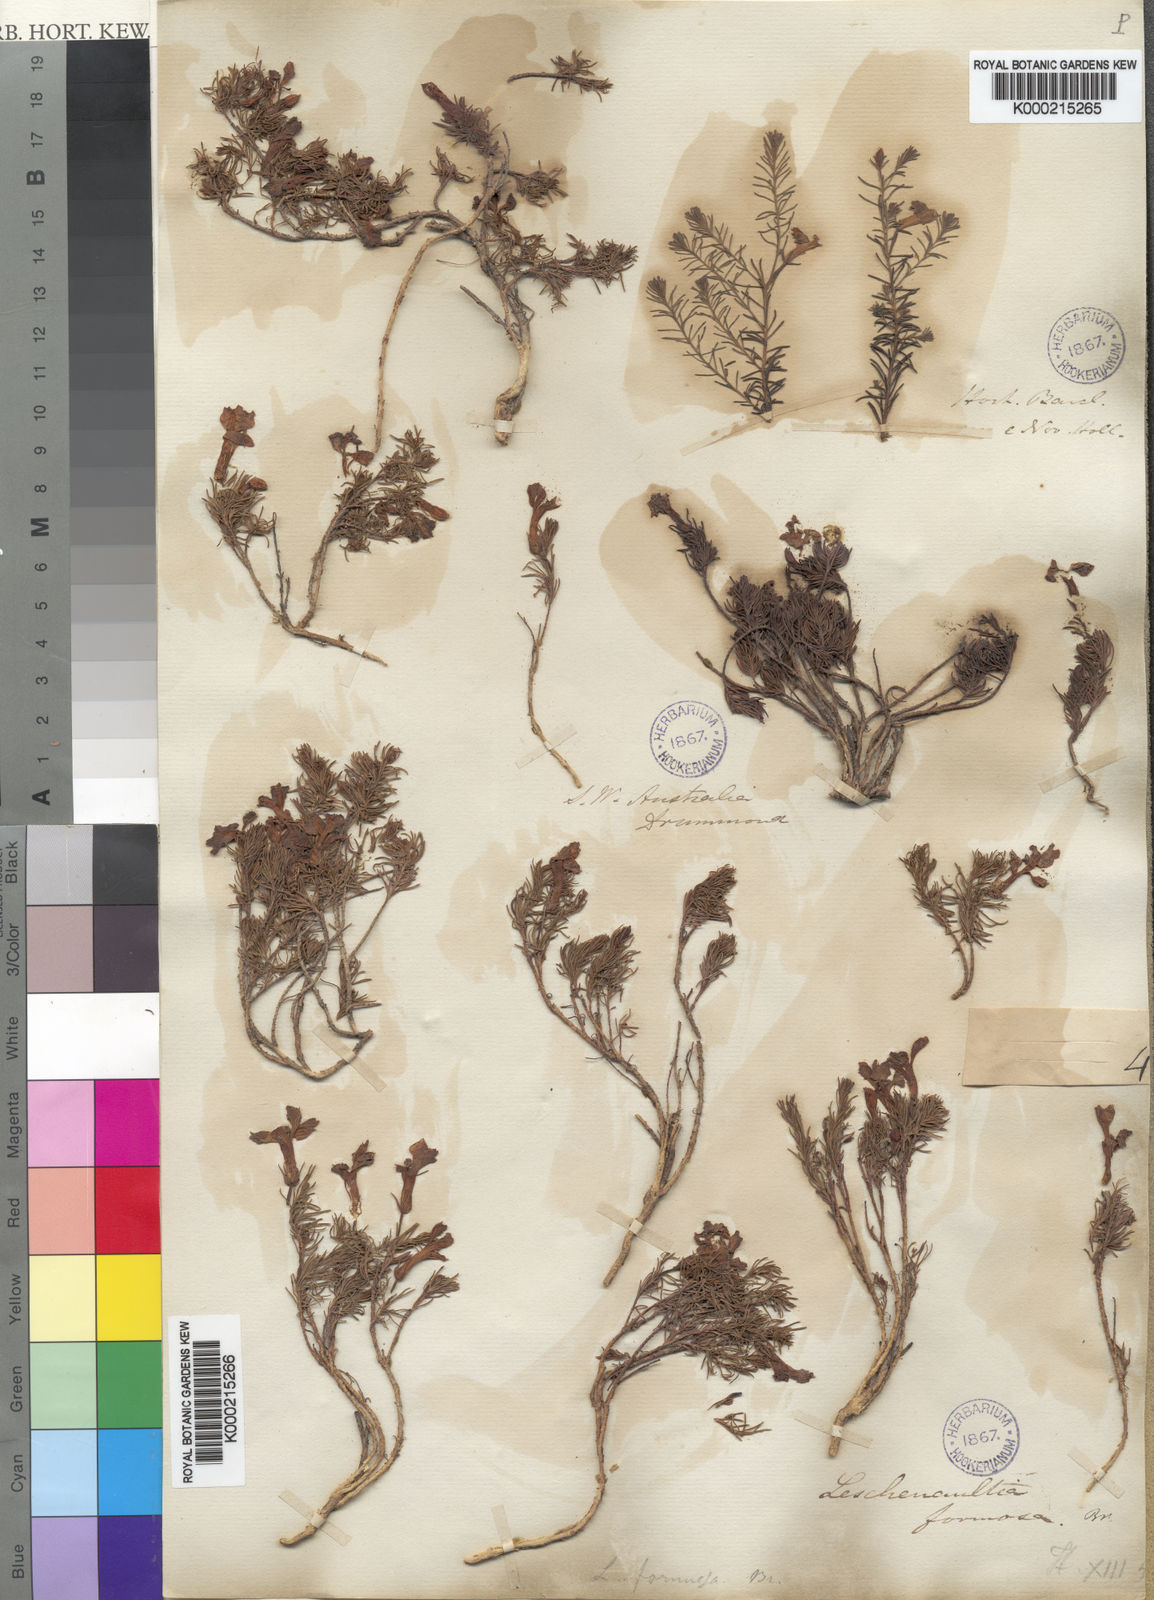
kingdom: Plantae
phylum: Tracheophyta
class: Magnoliopsida
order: Asterales
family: Goodeniaceae
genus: Leschenaultia
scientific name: Leschenaultia formosa
